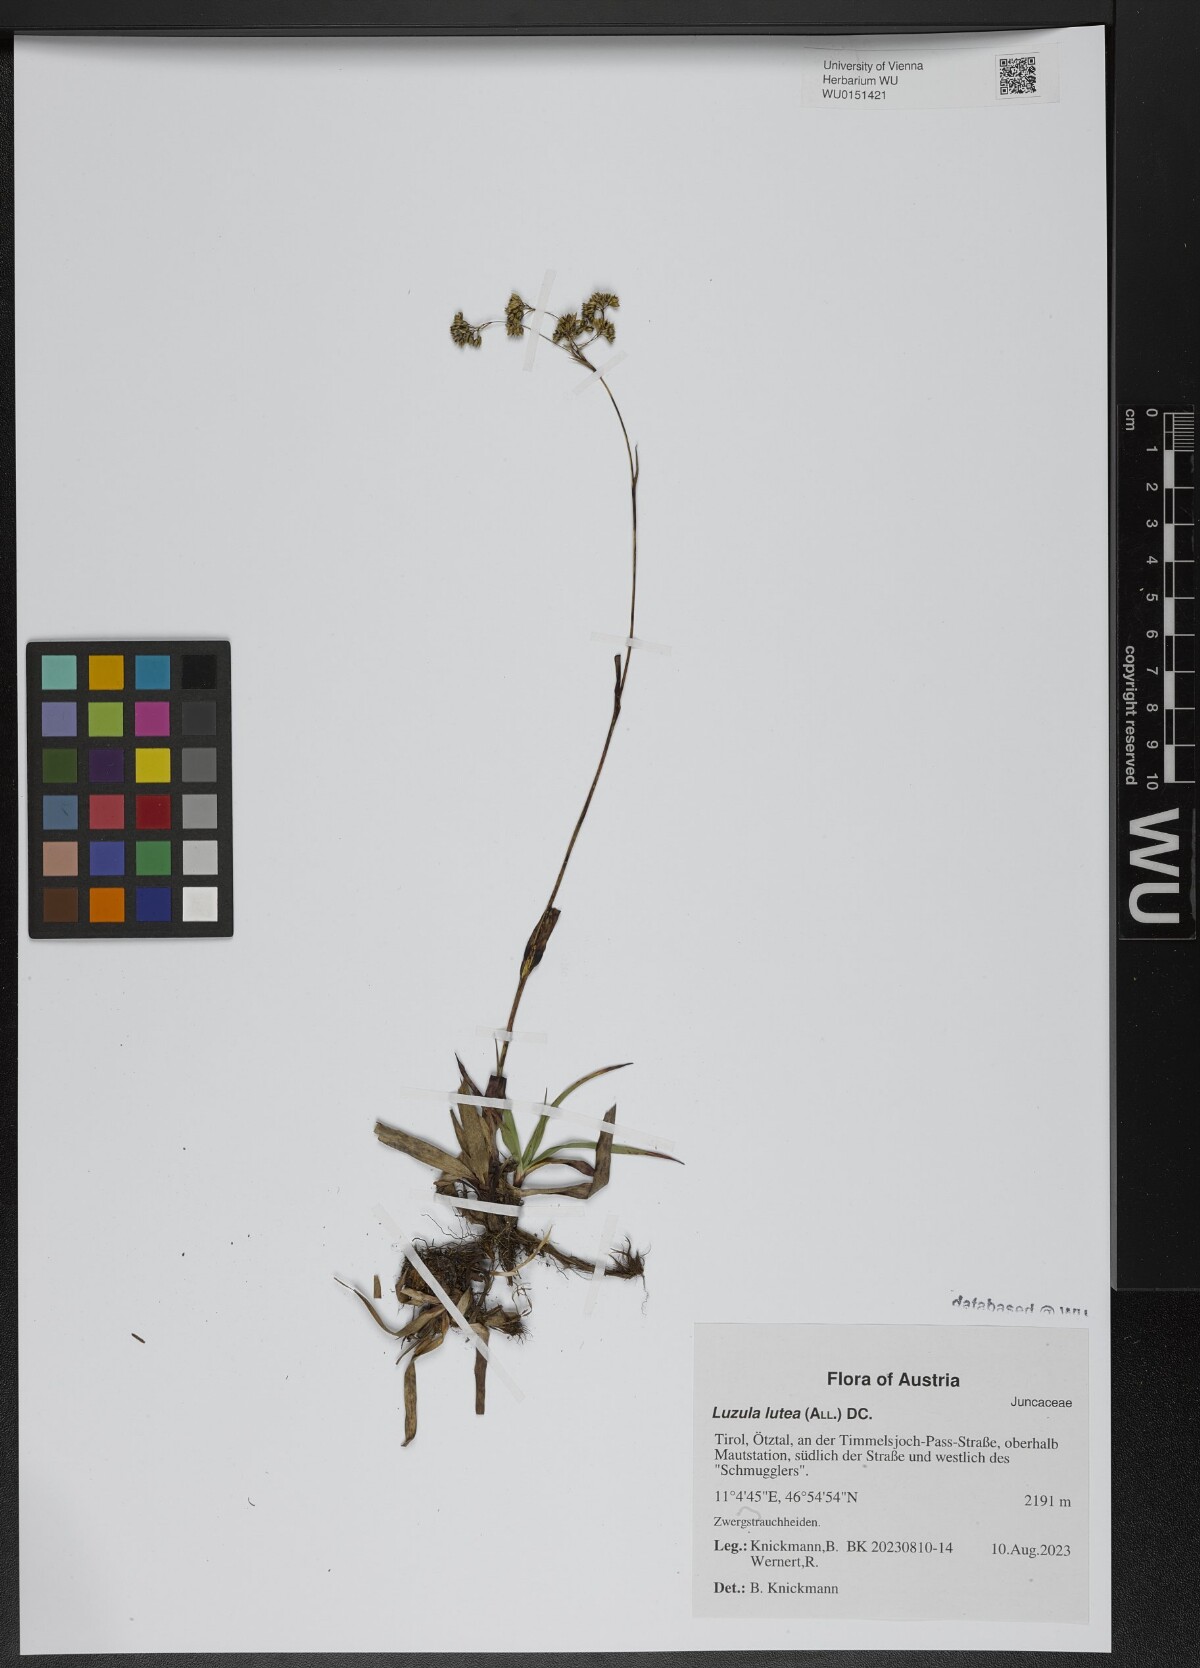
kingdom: Plantae
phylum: Tracheophyta
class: Liliopsida
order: Poales
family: Juncaceae
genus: Luzula
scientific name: Luzula lutea
